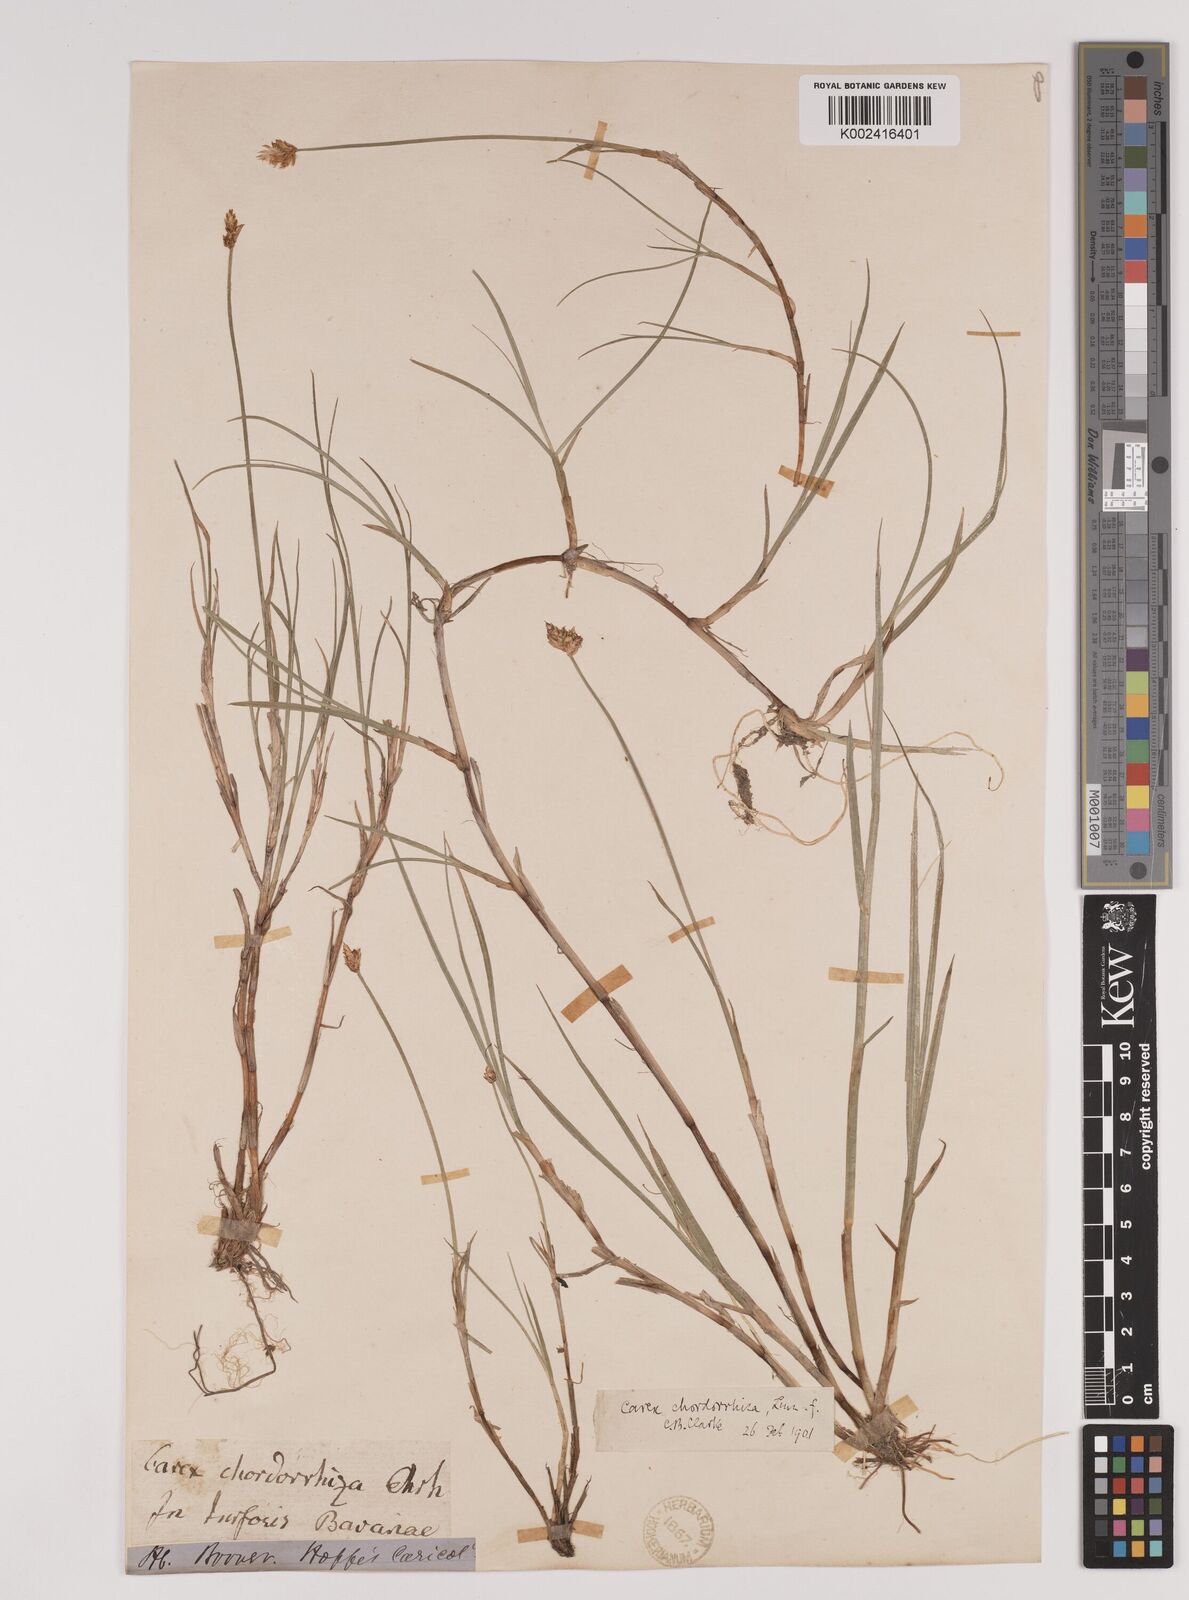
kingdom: Plantae
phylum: Tracheophyta
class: Liliopsida
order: Poales
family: Cyperaceae
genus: Carex
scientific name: Carex chordorrhiza
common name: String sedge
